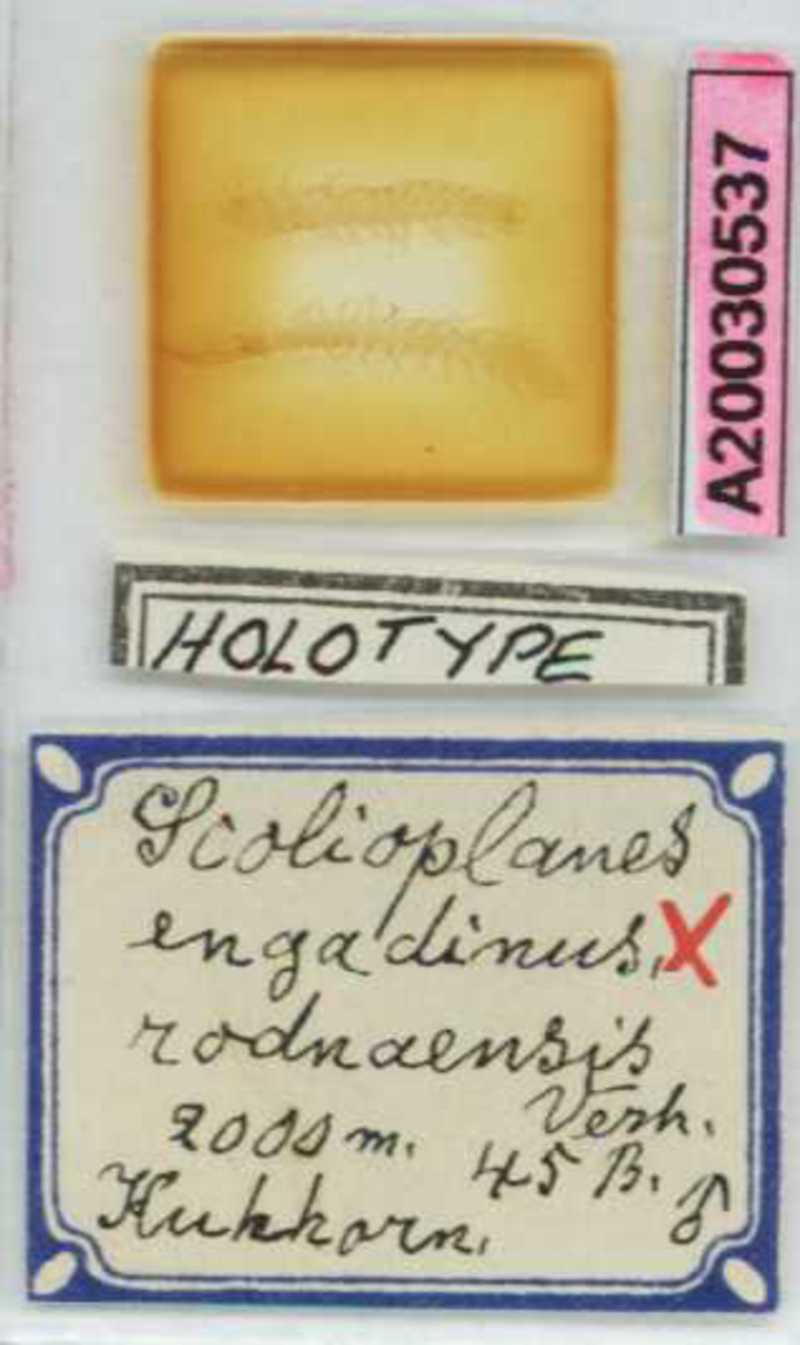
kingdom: Animalia
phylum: Arthropoda
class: Chilopoda
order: Geophilomorpha
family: Linotaeniidae
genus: Strigamia
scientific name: Strigamia engadina
